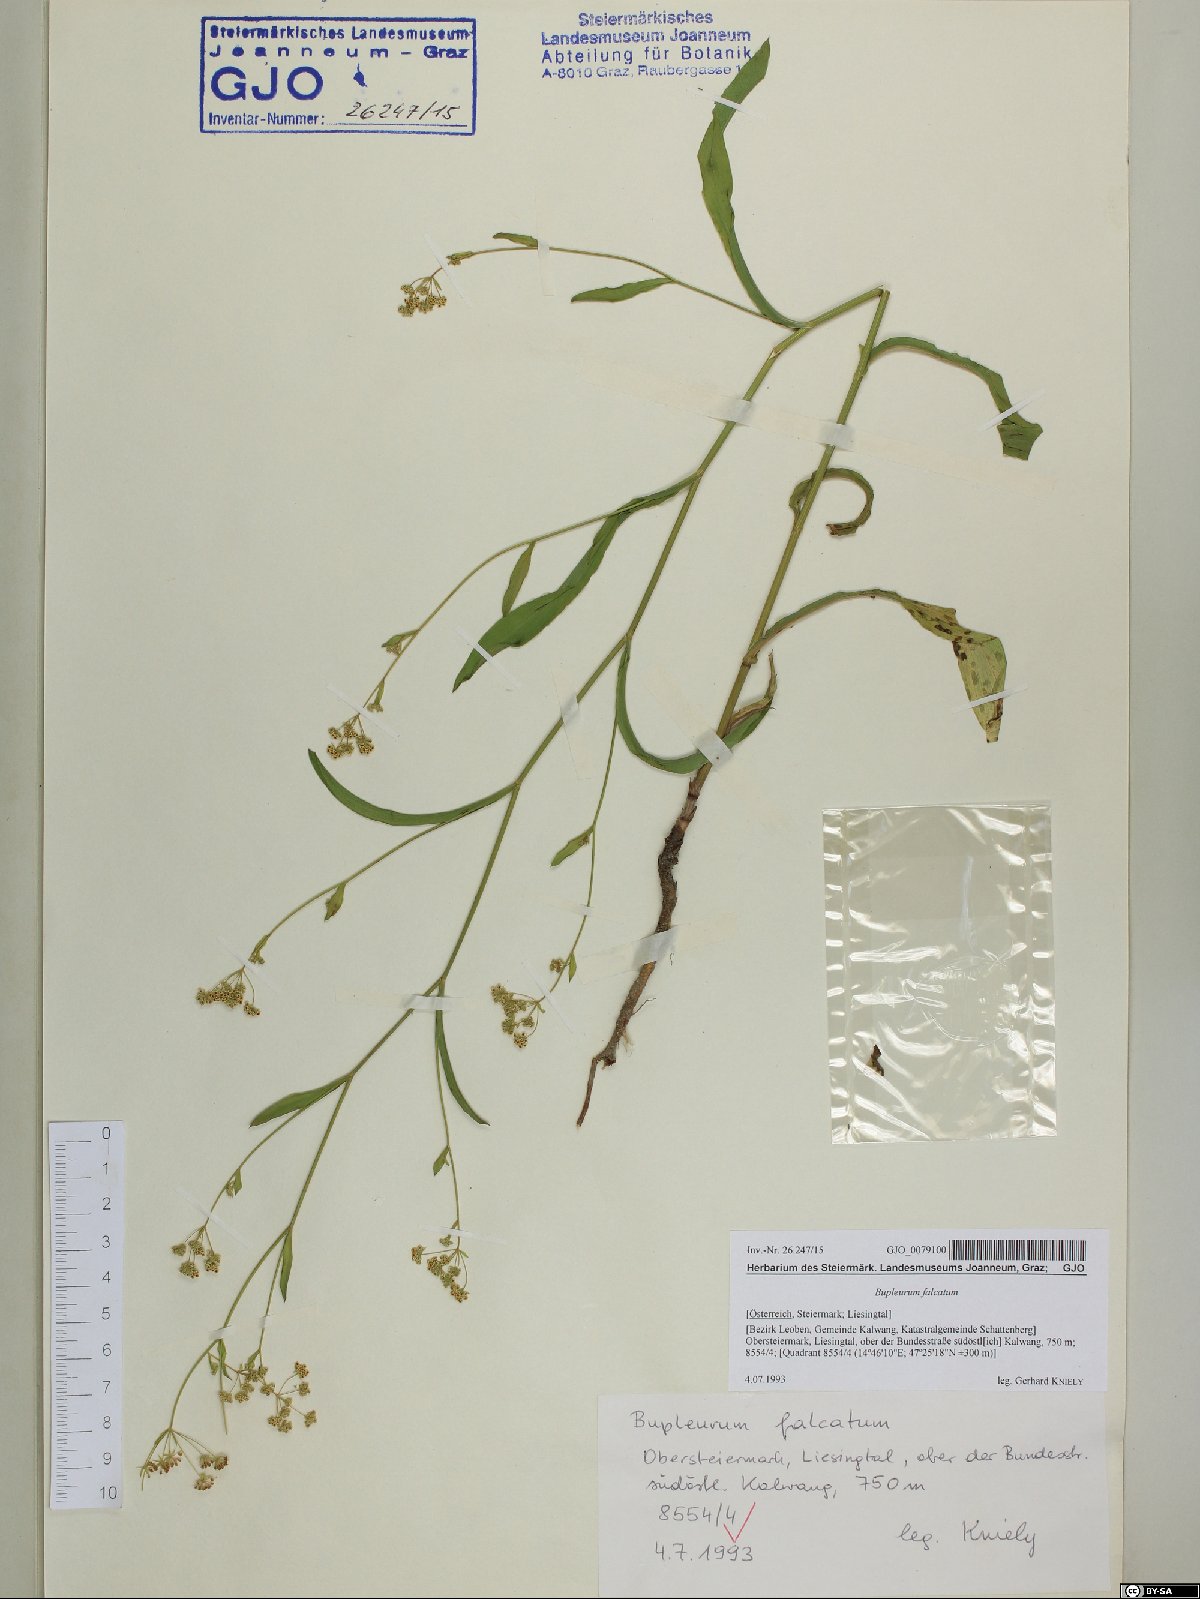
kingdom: Plantae
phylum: Tracheophyta
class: Magnoliopsida
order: Apiales
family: Apiaceae
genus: Bupleurum
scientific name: Bupleurum falcatum
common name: Sickle-leaved hare's-ear
